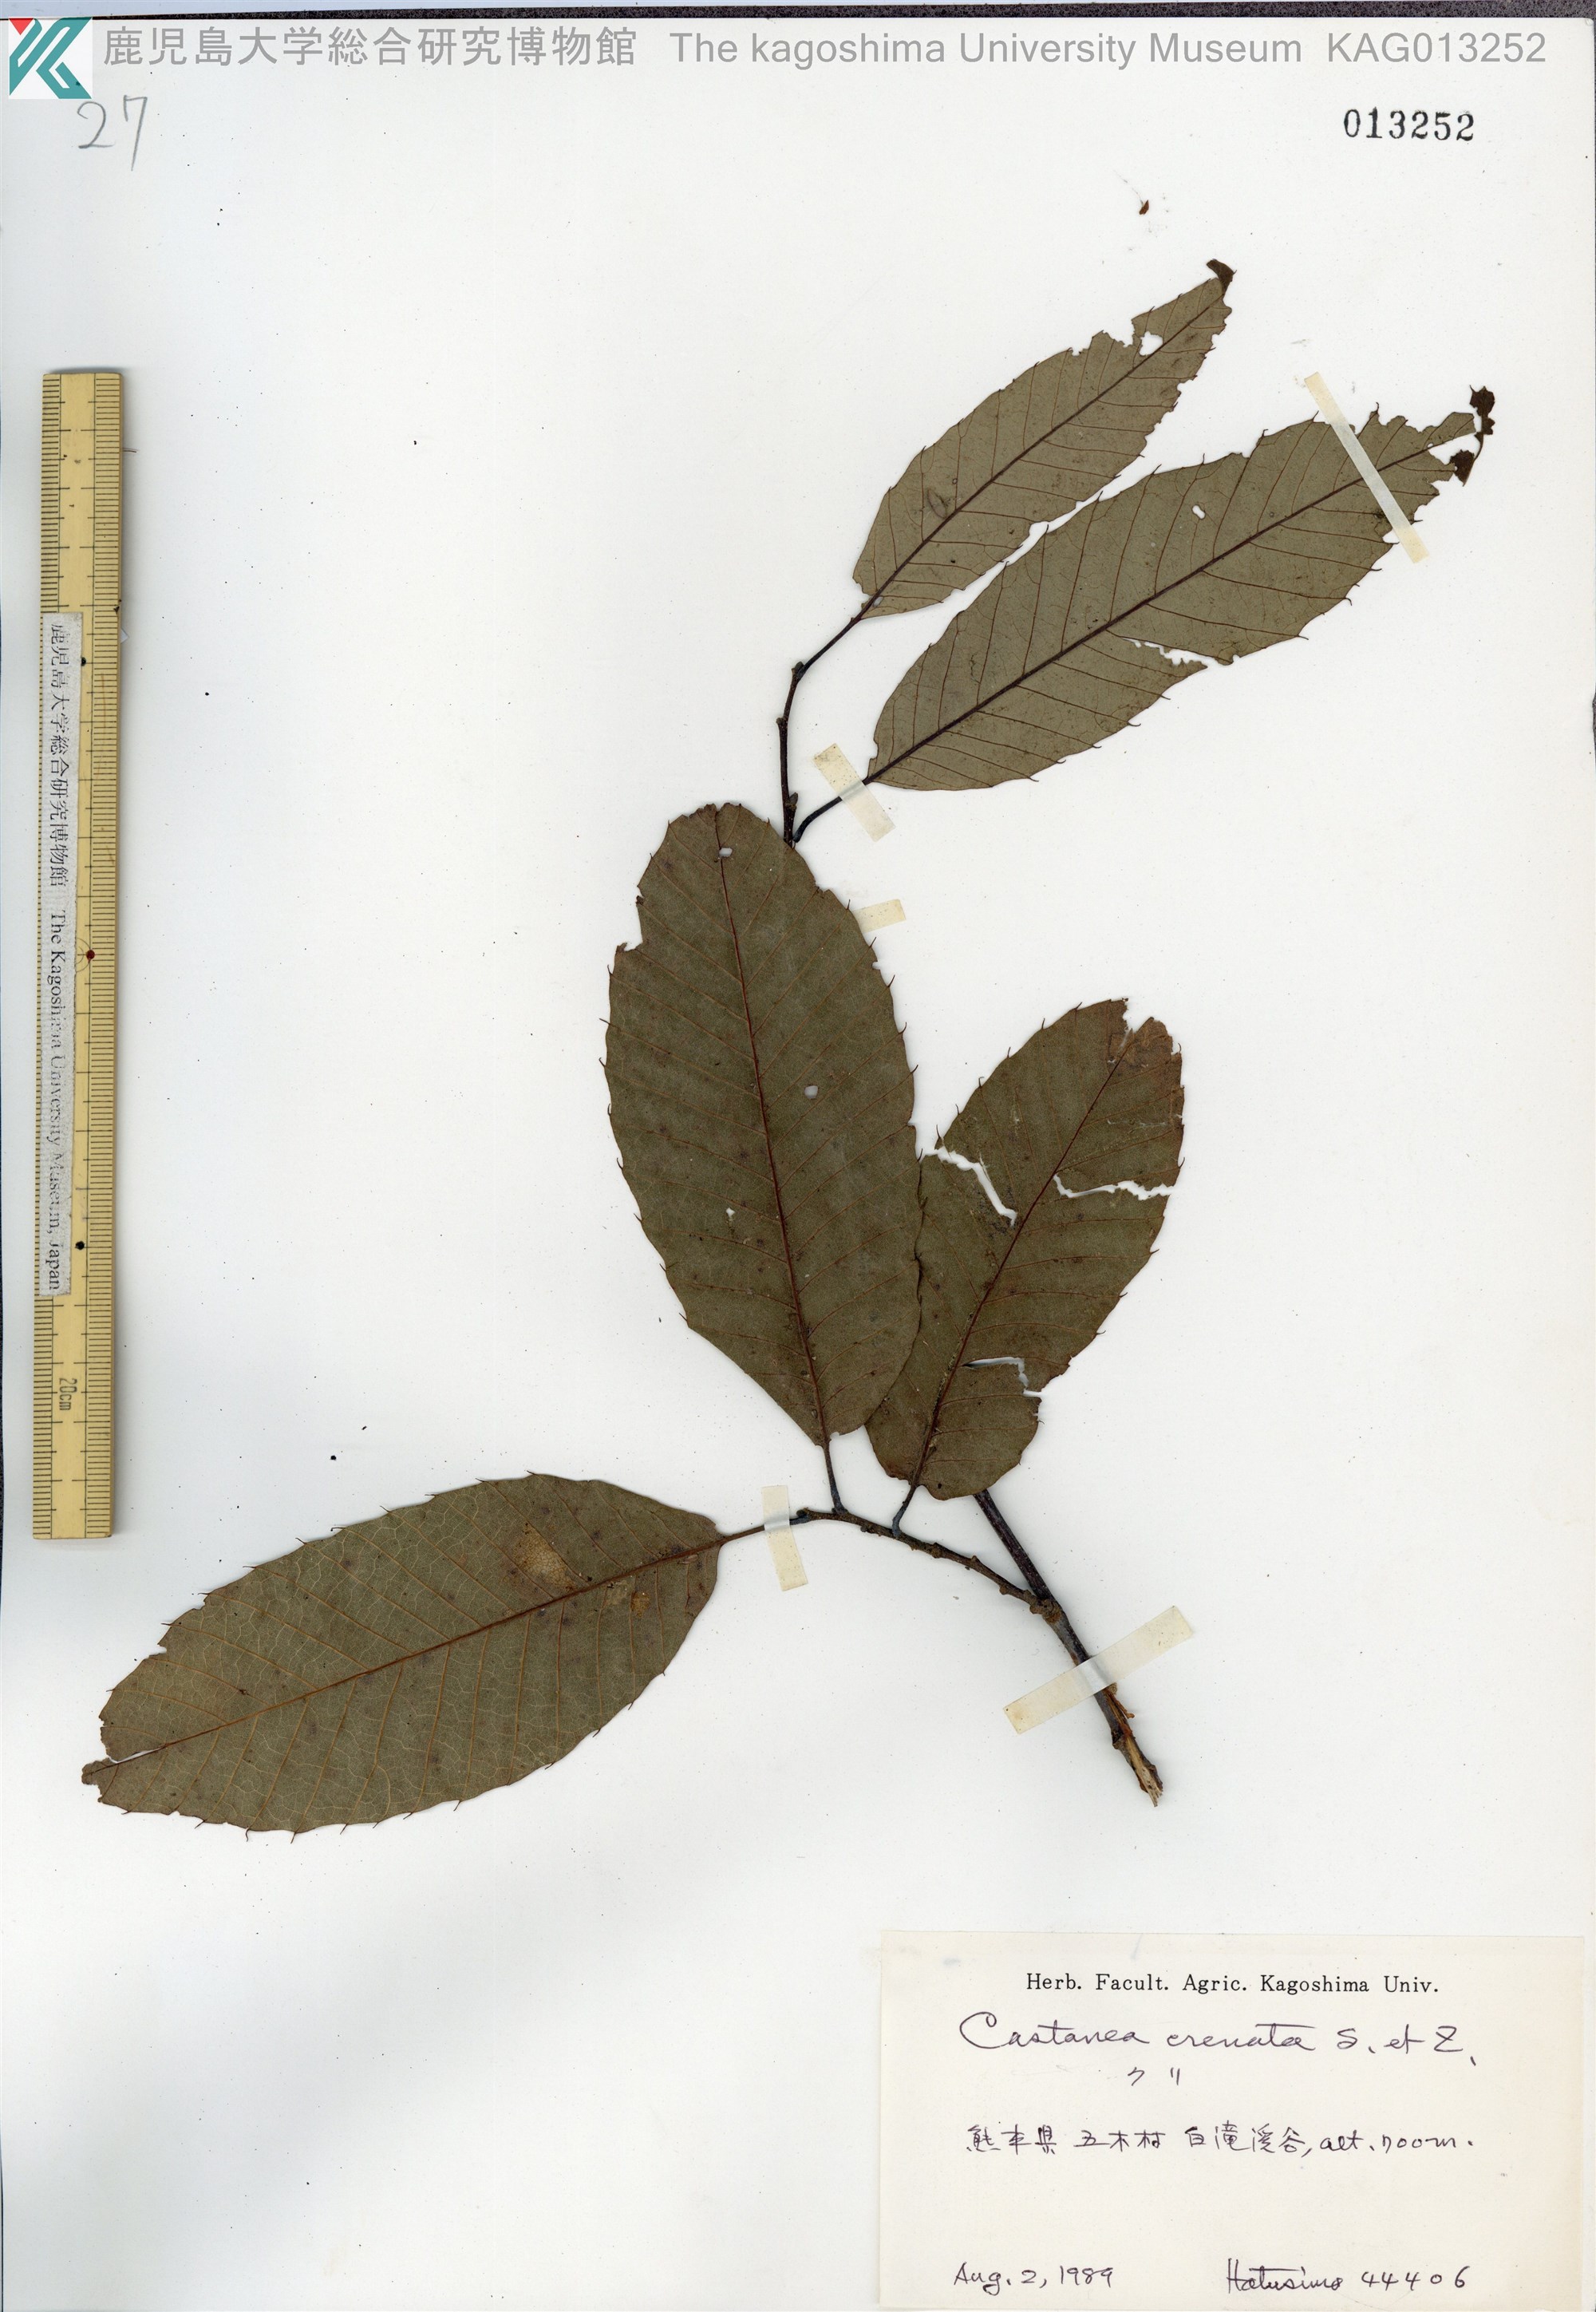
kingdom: Plantae
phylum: Tracheophyta
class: Magnoliopsida
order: Fagales
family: Fagaceae
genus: Castanea
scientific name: Castanea crenata
